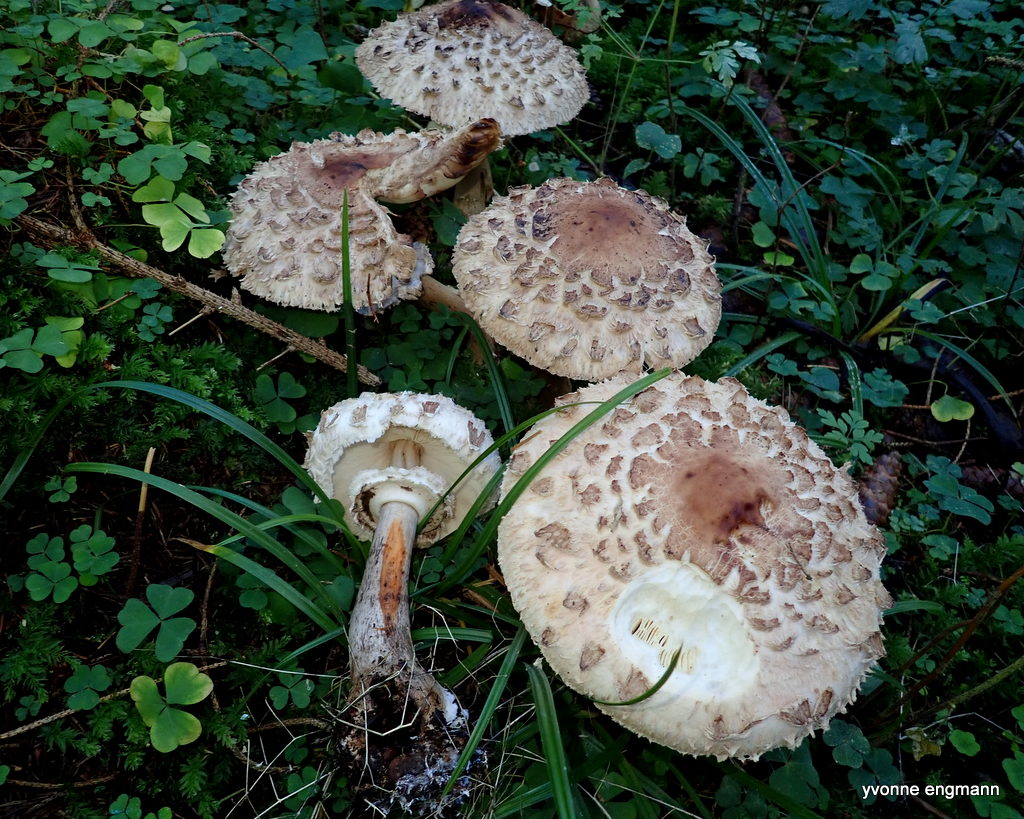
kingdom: Fungi
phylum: Basidiomycota
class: Agaricomycetes
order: Agaricales
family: Agaricaceae
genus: Chlorophyllum
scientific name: Chlorophyllum rhacodes
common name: ægte rabarberhat
